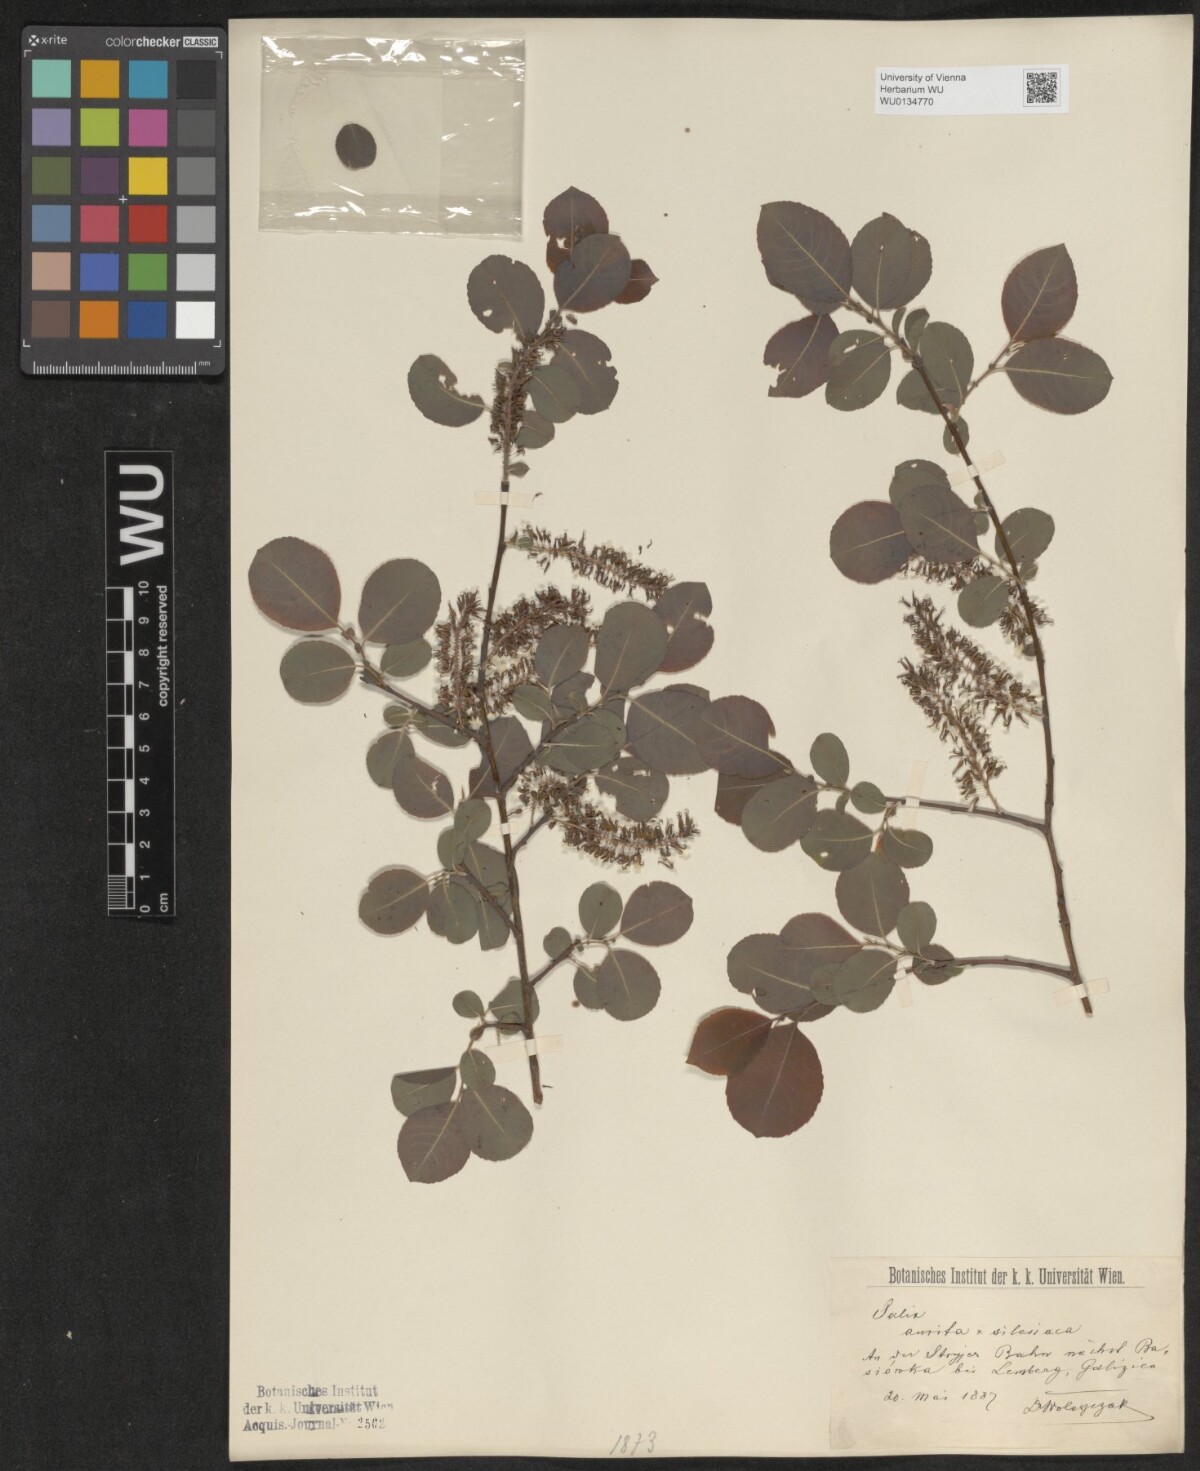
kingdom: Plantae
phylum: Tracheophyta
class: Magnoliopsida
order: Malpighiales
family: Salicaceae
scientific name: Salicaceae
